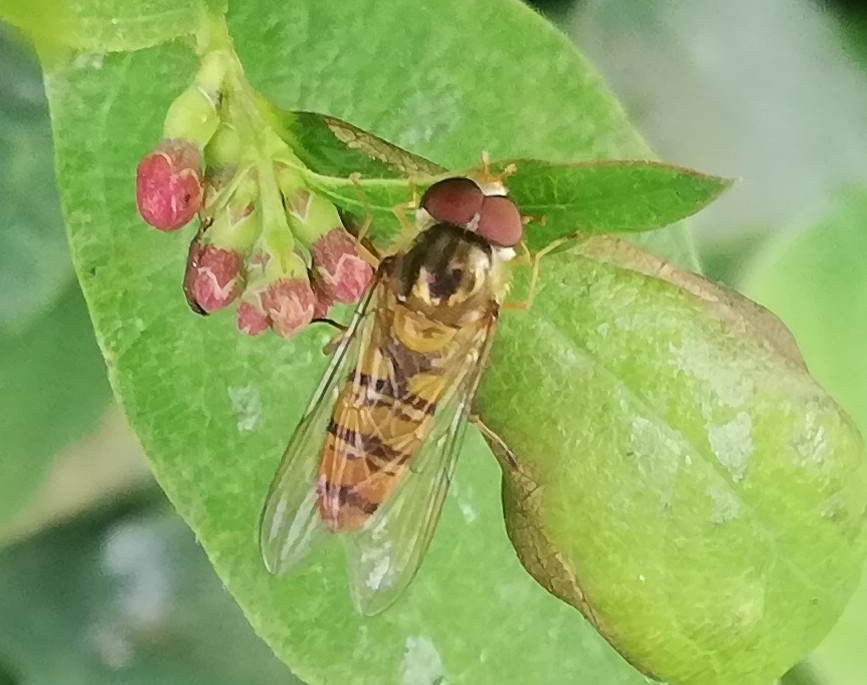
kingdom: Animalia
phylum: Arthropoda
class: Insecta
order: Diptera
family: Syrphidae
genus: Episyrphus
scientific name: Episyrphus balteatus
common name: Dobbeltbåndet svirreflue
